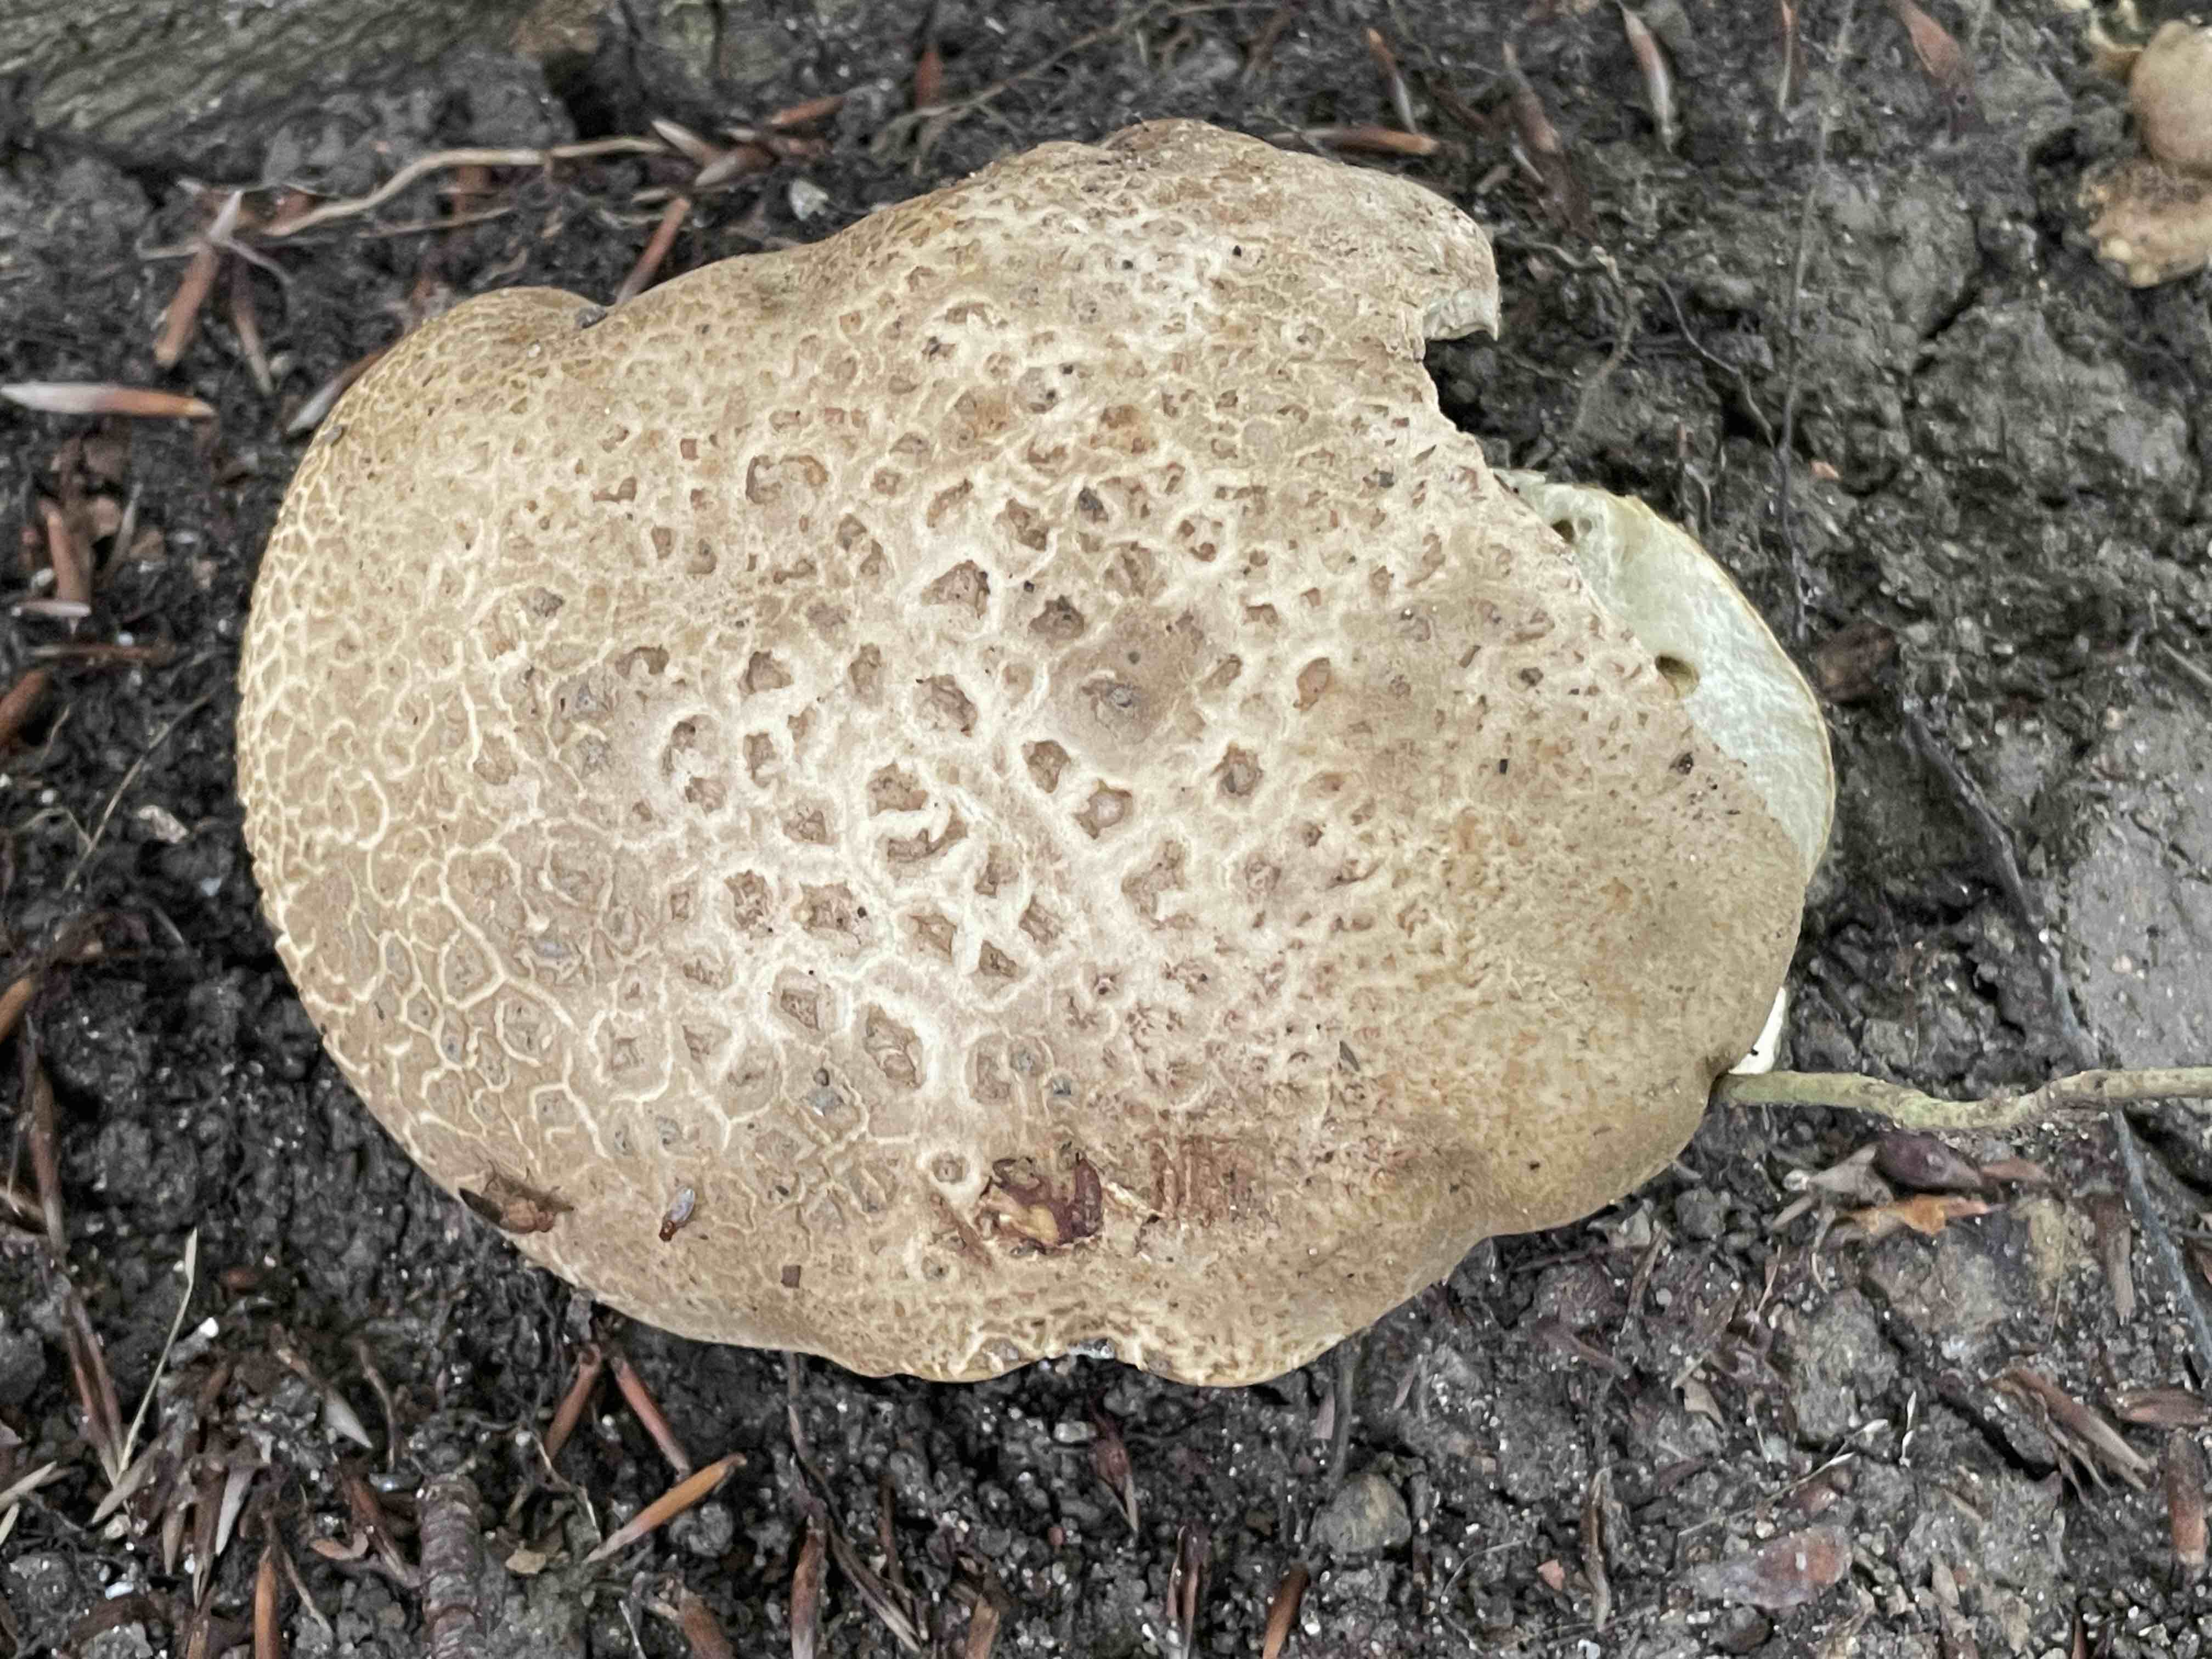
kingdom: Fungi
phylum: Basidiomycota
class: Agaricomycetes
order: Boletales
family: Boletaceae
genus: Caloboletus
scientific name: Caloboletus radicans
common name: rod-rørhat
